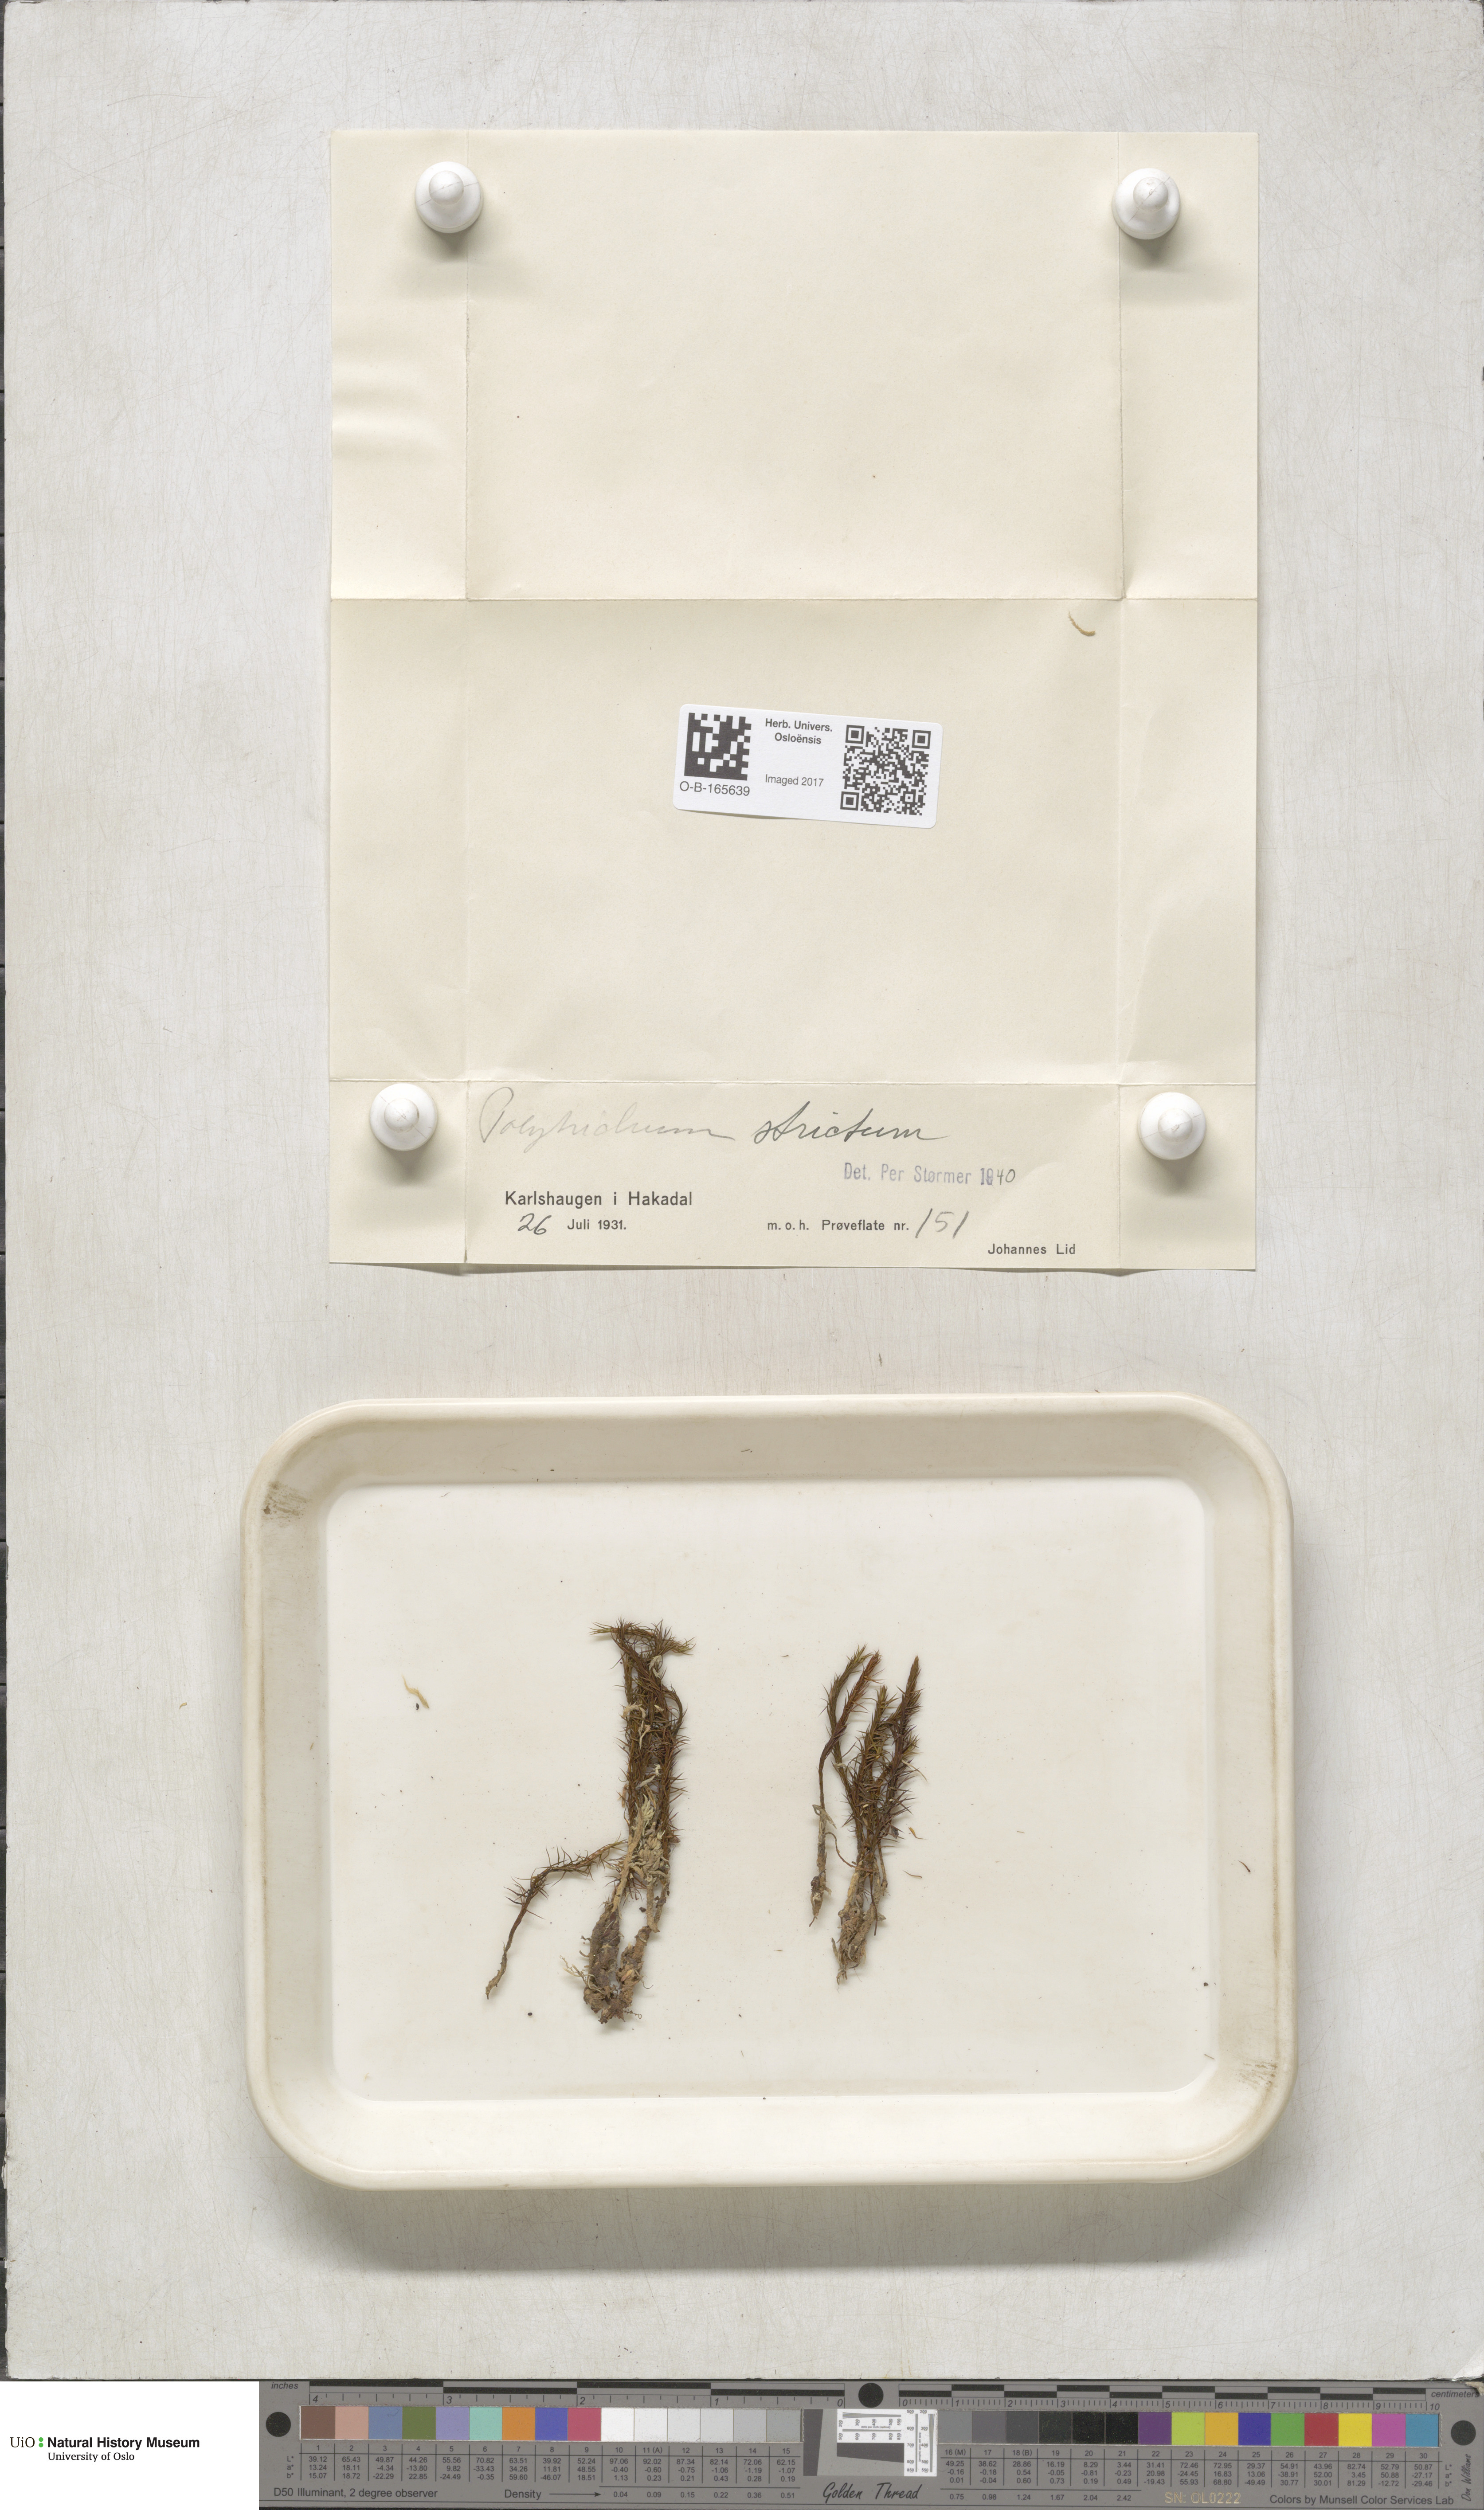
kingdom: Plantae
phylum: Bryophyta
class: Polytrichopsida
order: Polytrichales
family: Polytrichaceae
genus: Polytrichum
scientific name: Polytrichum strictum
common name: Bog haircap moss
